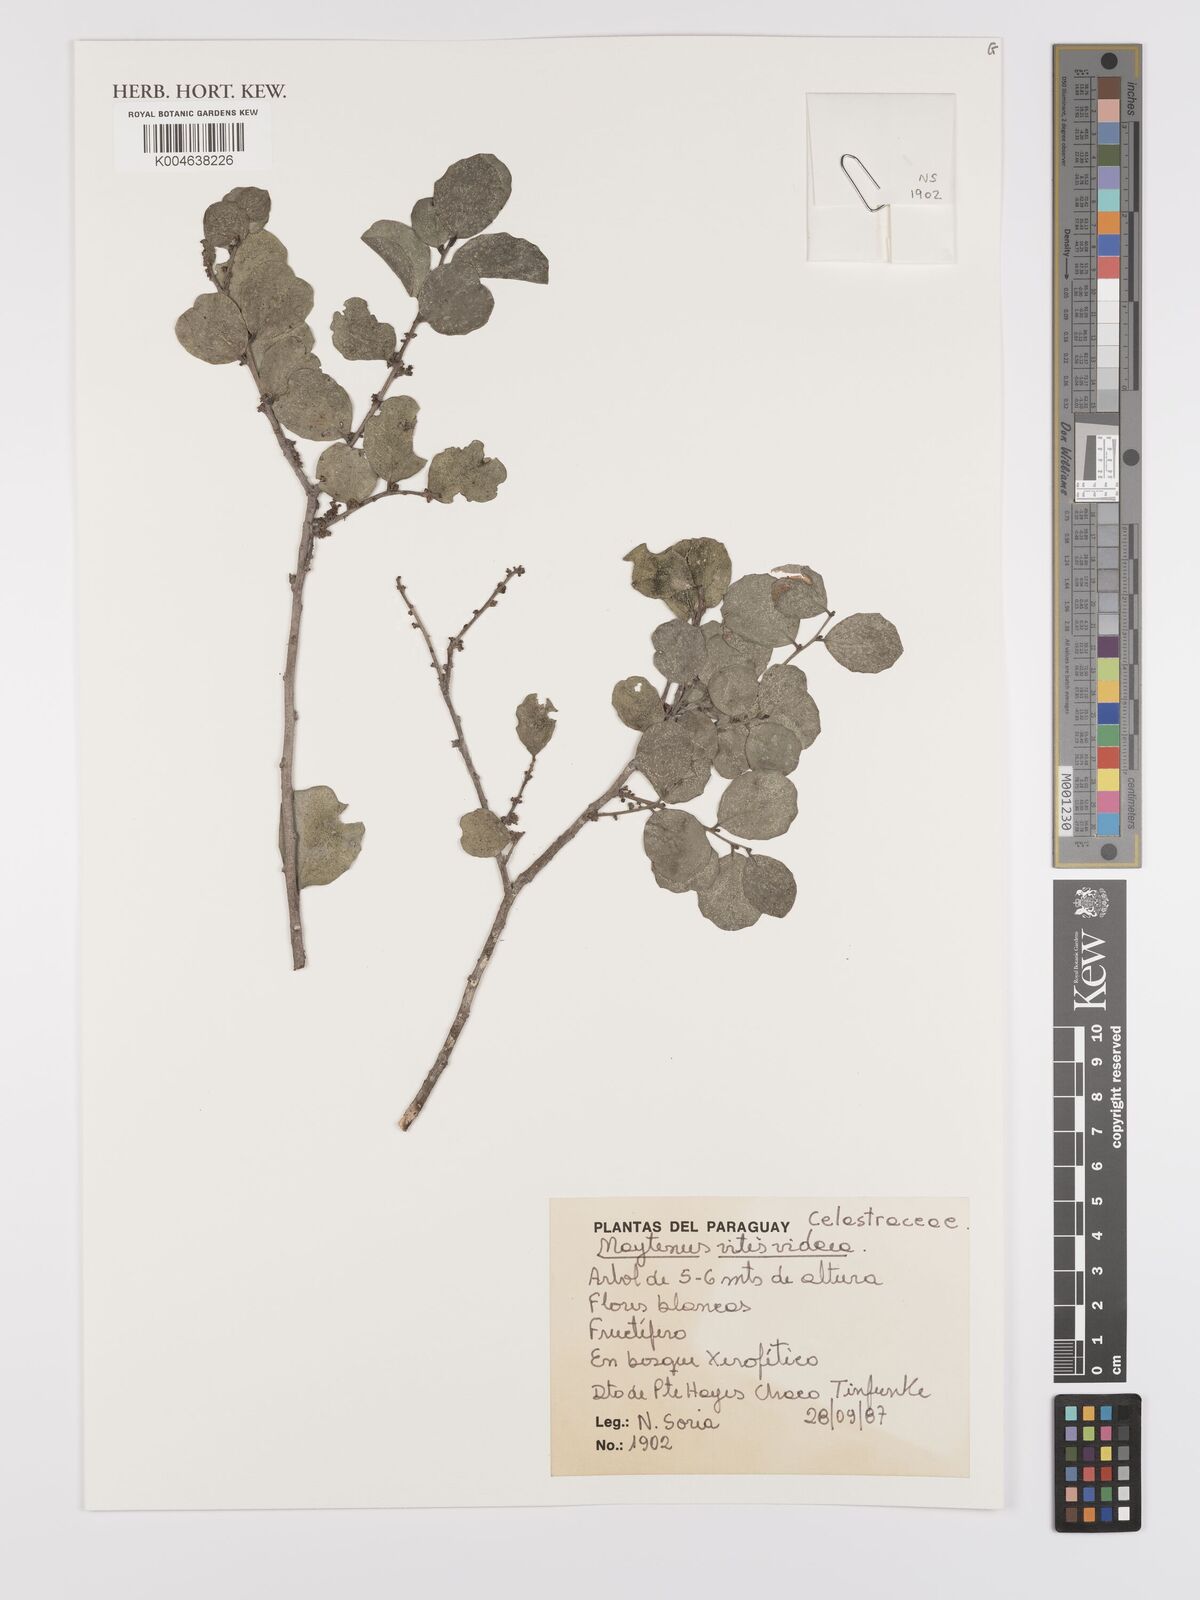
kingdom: Plantae
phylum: Tracheophyta
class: Magnoliopsida
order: Celastrales
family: Celastraceae
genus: Tricerma
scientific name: Tricerma vitis-idaeum
